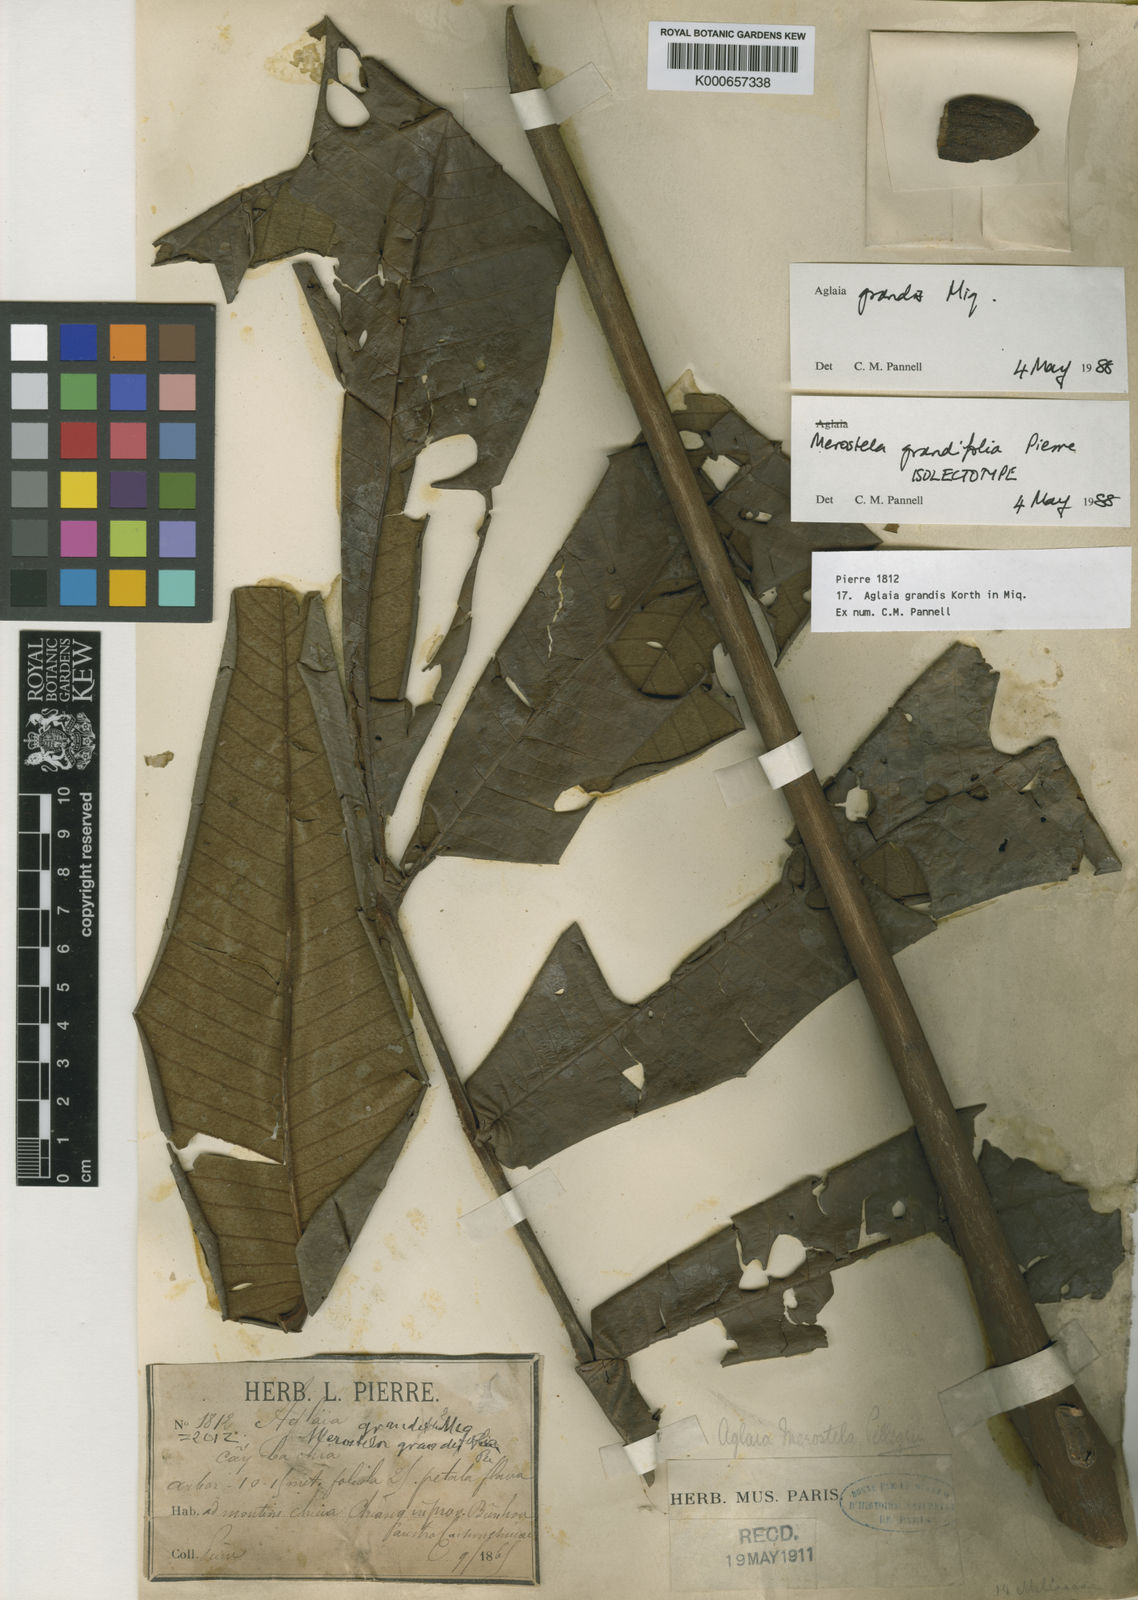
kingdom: Plantae
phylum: Tracheophyta
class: Magnoliopsida
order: Sapindales
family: Meliaceae
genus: Aglaia
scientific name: Aglaia grandis
